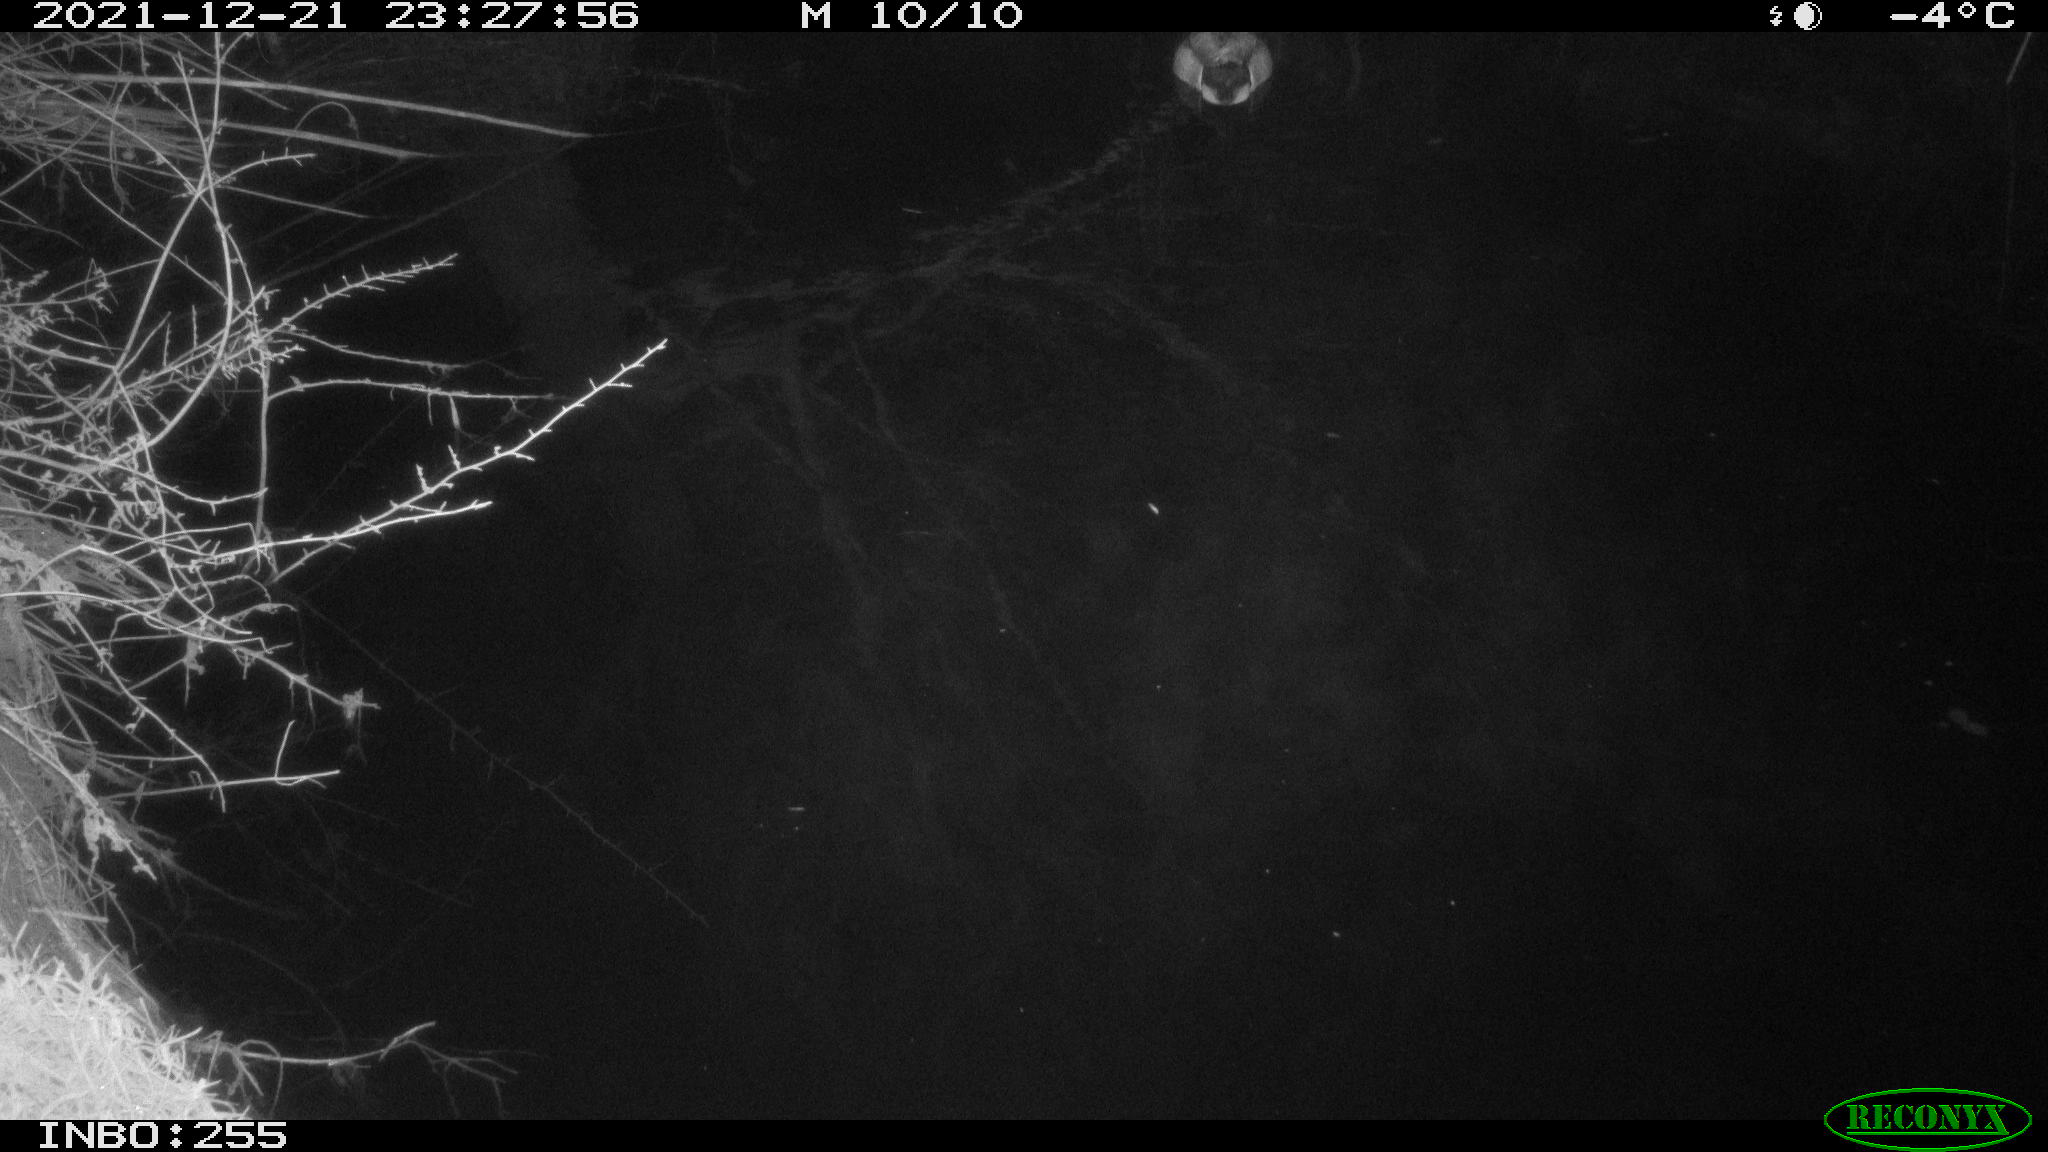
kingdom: Animalia
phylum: Chordata
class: Aves
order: Anseriformes
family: Anatidae
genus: Anas
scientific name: Anas
